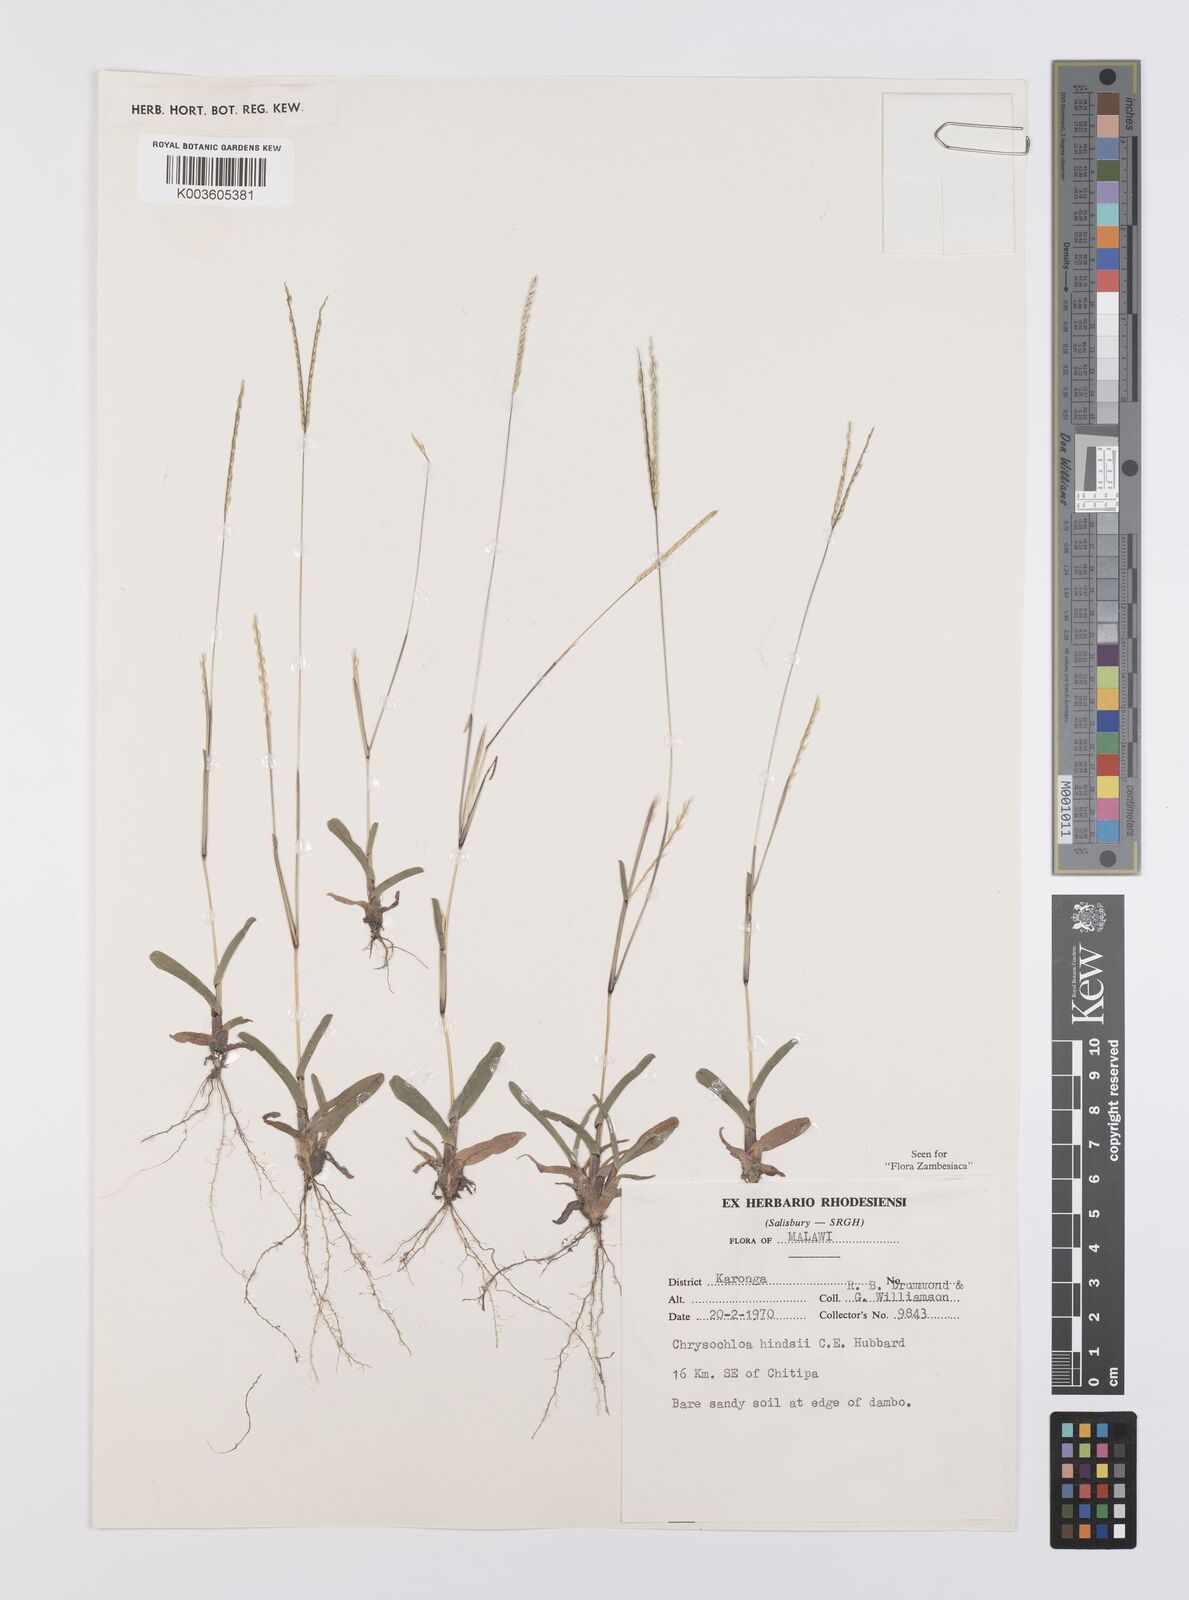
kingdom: Plantae
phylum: Tracheophyta
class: Liliopsida
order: Poales
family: Poaceae
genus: Chrysochloa
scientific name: Chrysochloa hindsii
